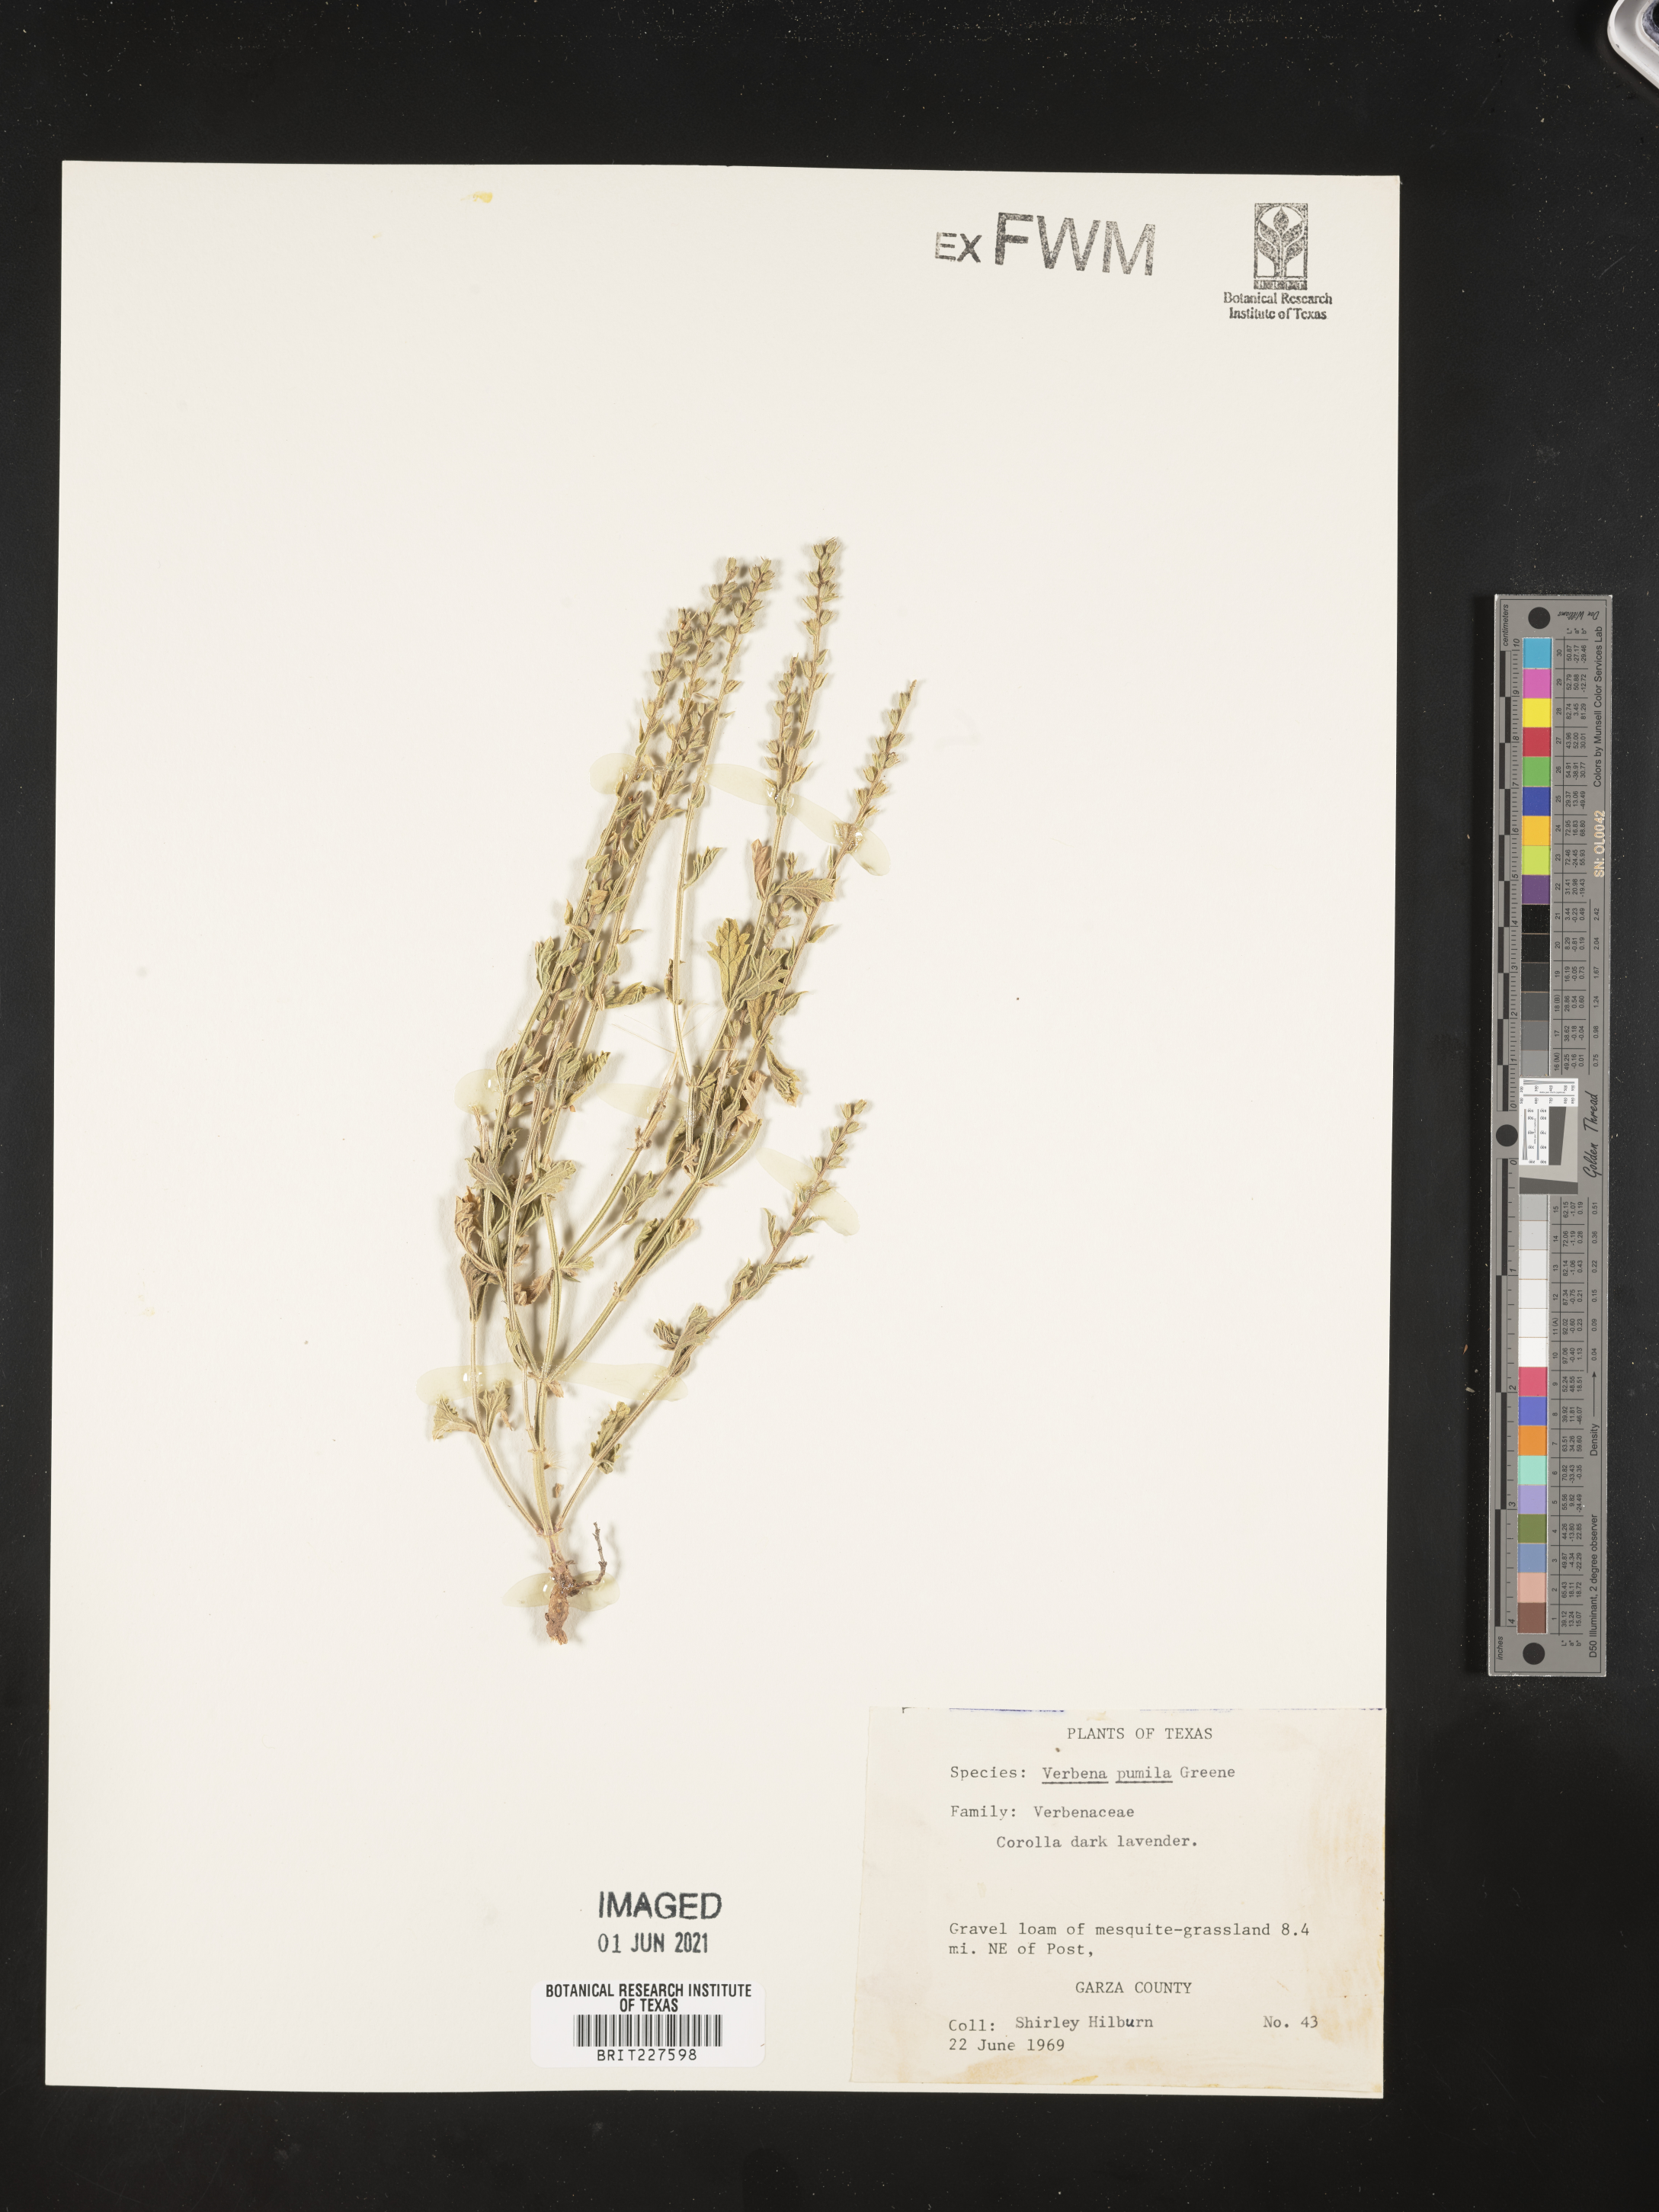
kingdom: Plantae
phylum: Tracheophyta
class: Magnoliopsida
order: Lamiales
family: Verbenaceae
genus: Verbena
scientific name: Verbena pumila
